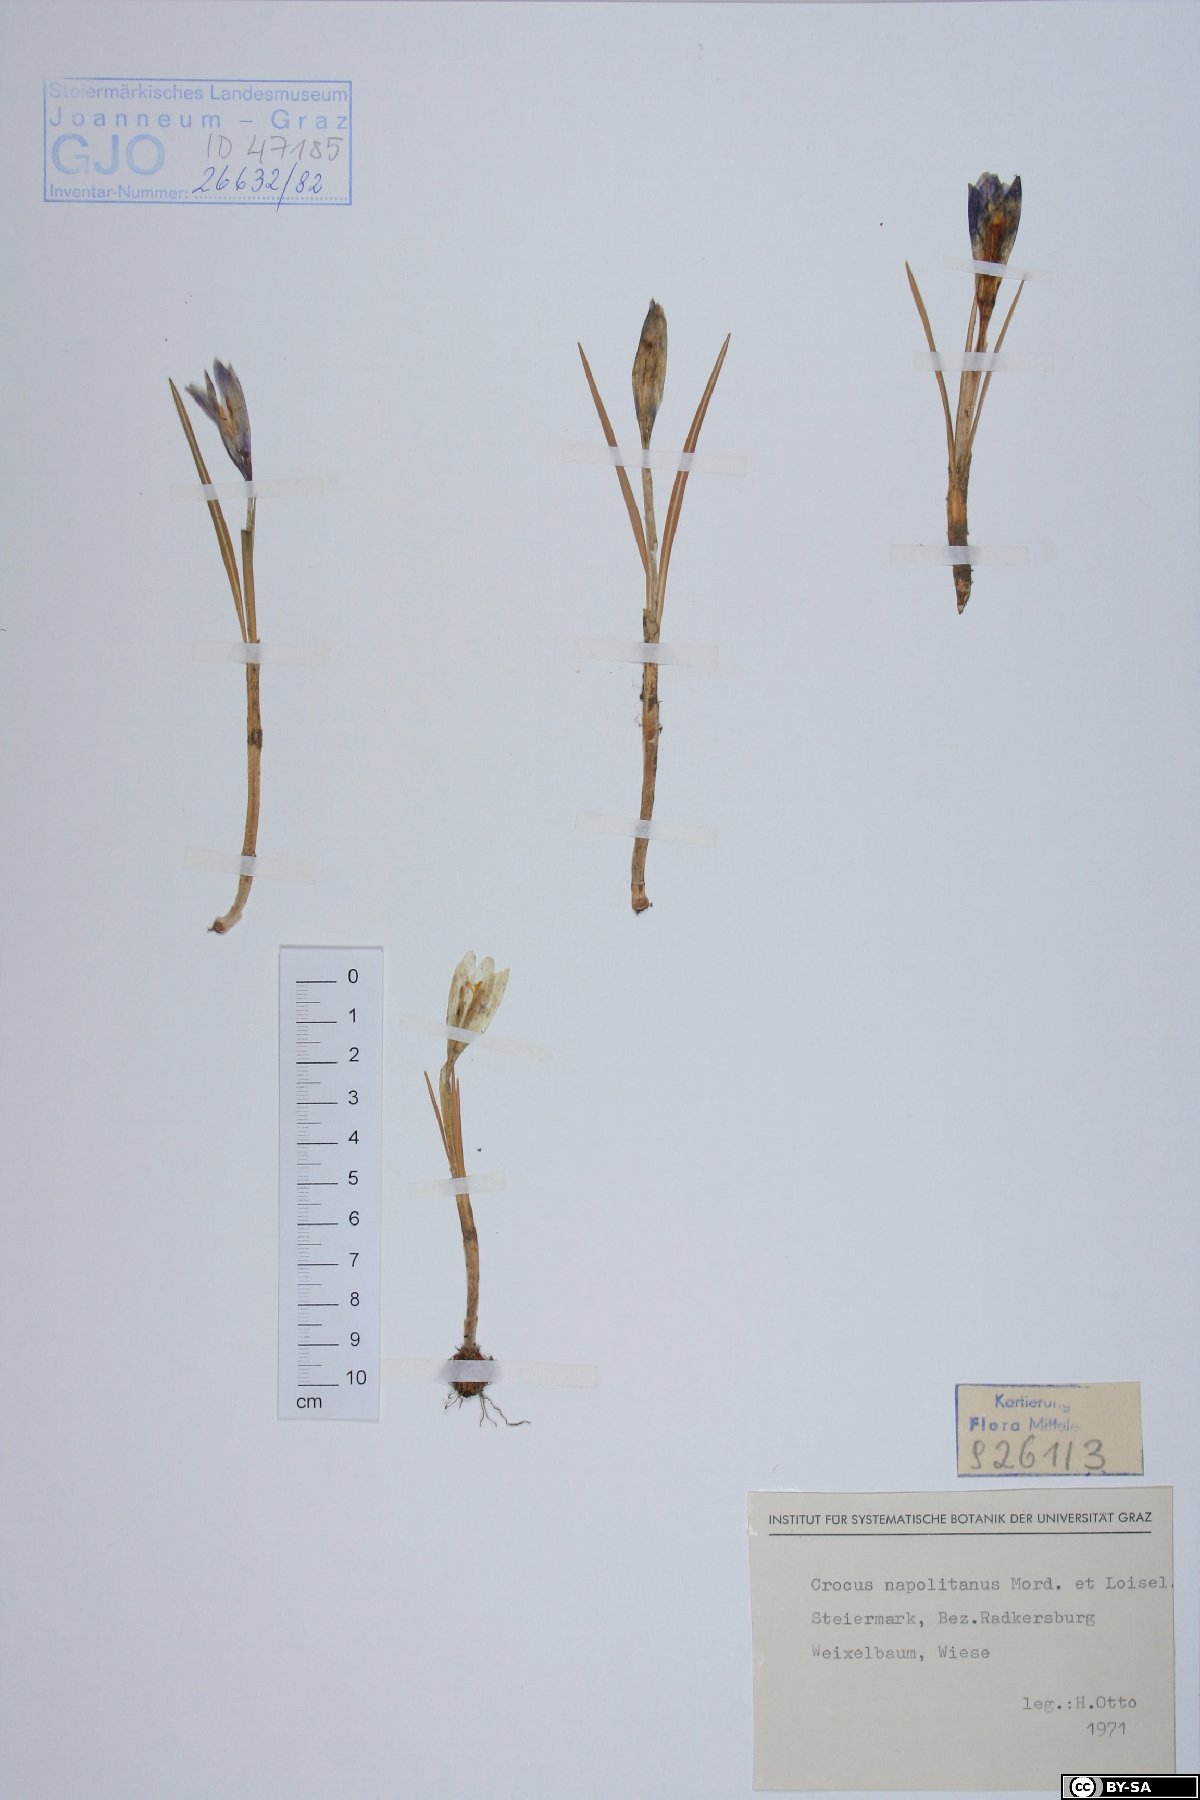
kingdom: Plantae
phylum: Tracheophyta
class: Liliopsida
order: Asparagales
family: Iridaceae
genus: Crocus
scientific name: Crocus vernus
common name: Spring crocus
